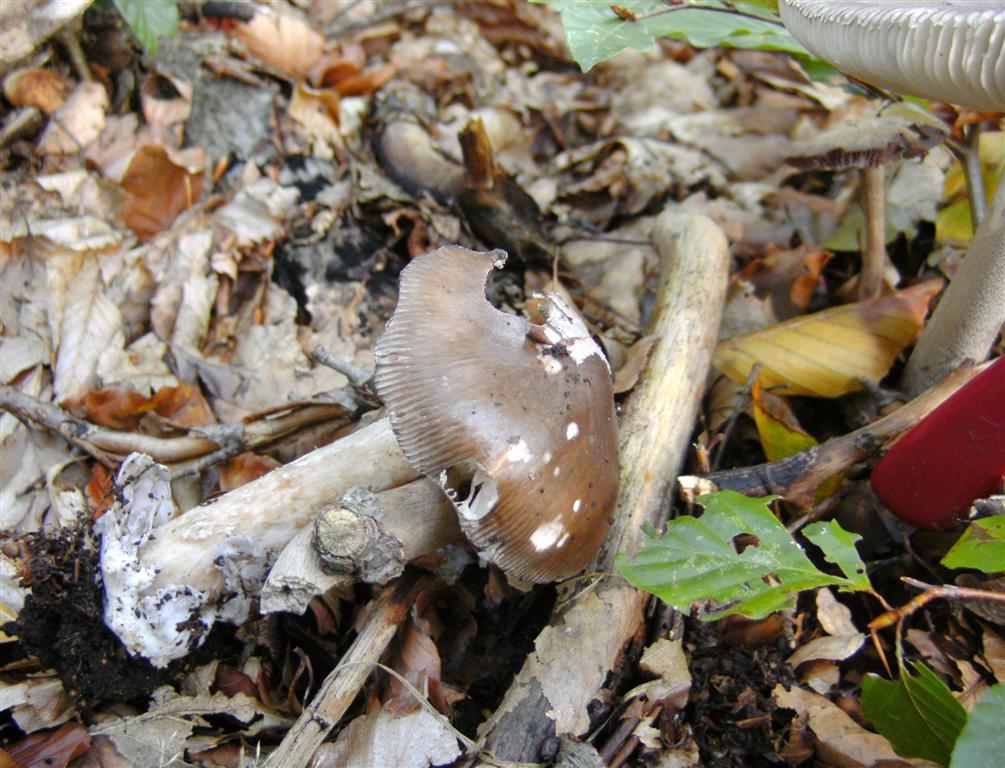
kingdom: Fungi
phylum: Basidiomycota
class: Agaricomycetes
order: Agaricales
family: Amanitaceae
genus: Amanita
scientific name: Amanita submembranacea
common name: gråspættet kam-fluesvamp
